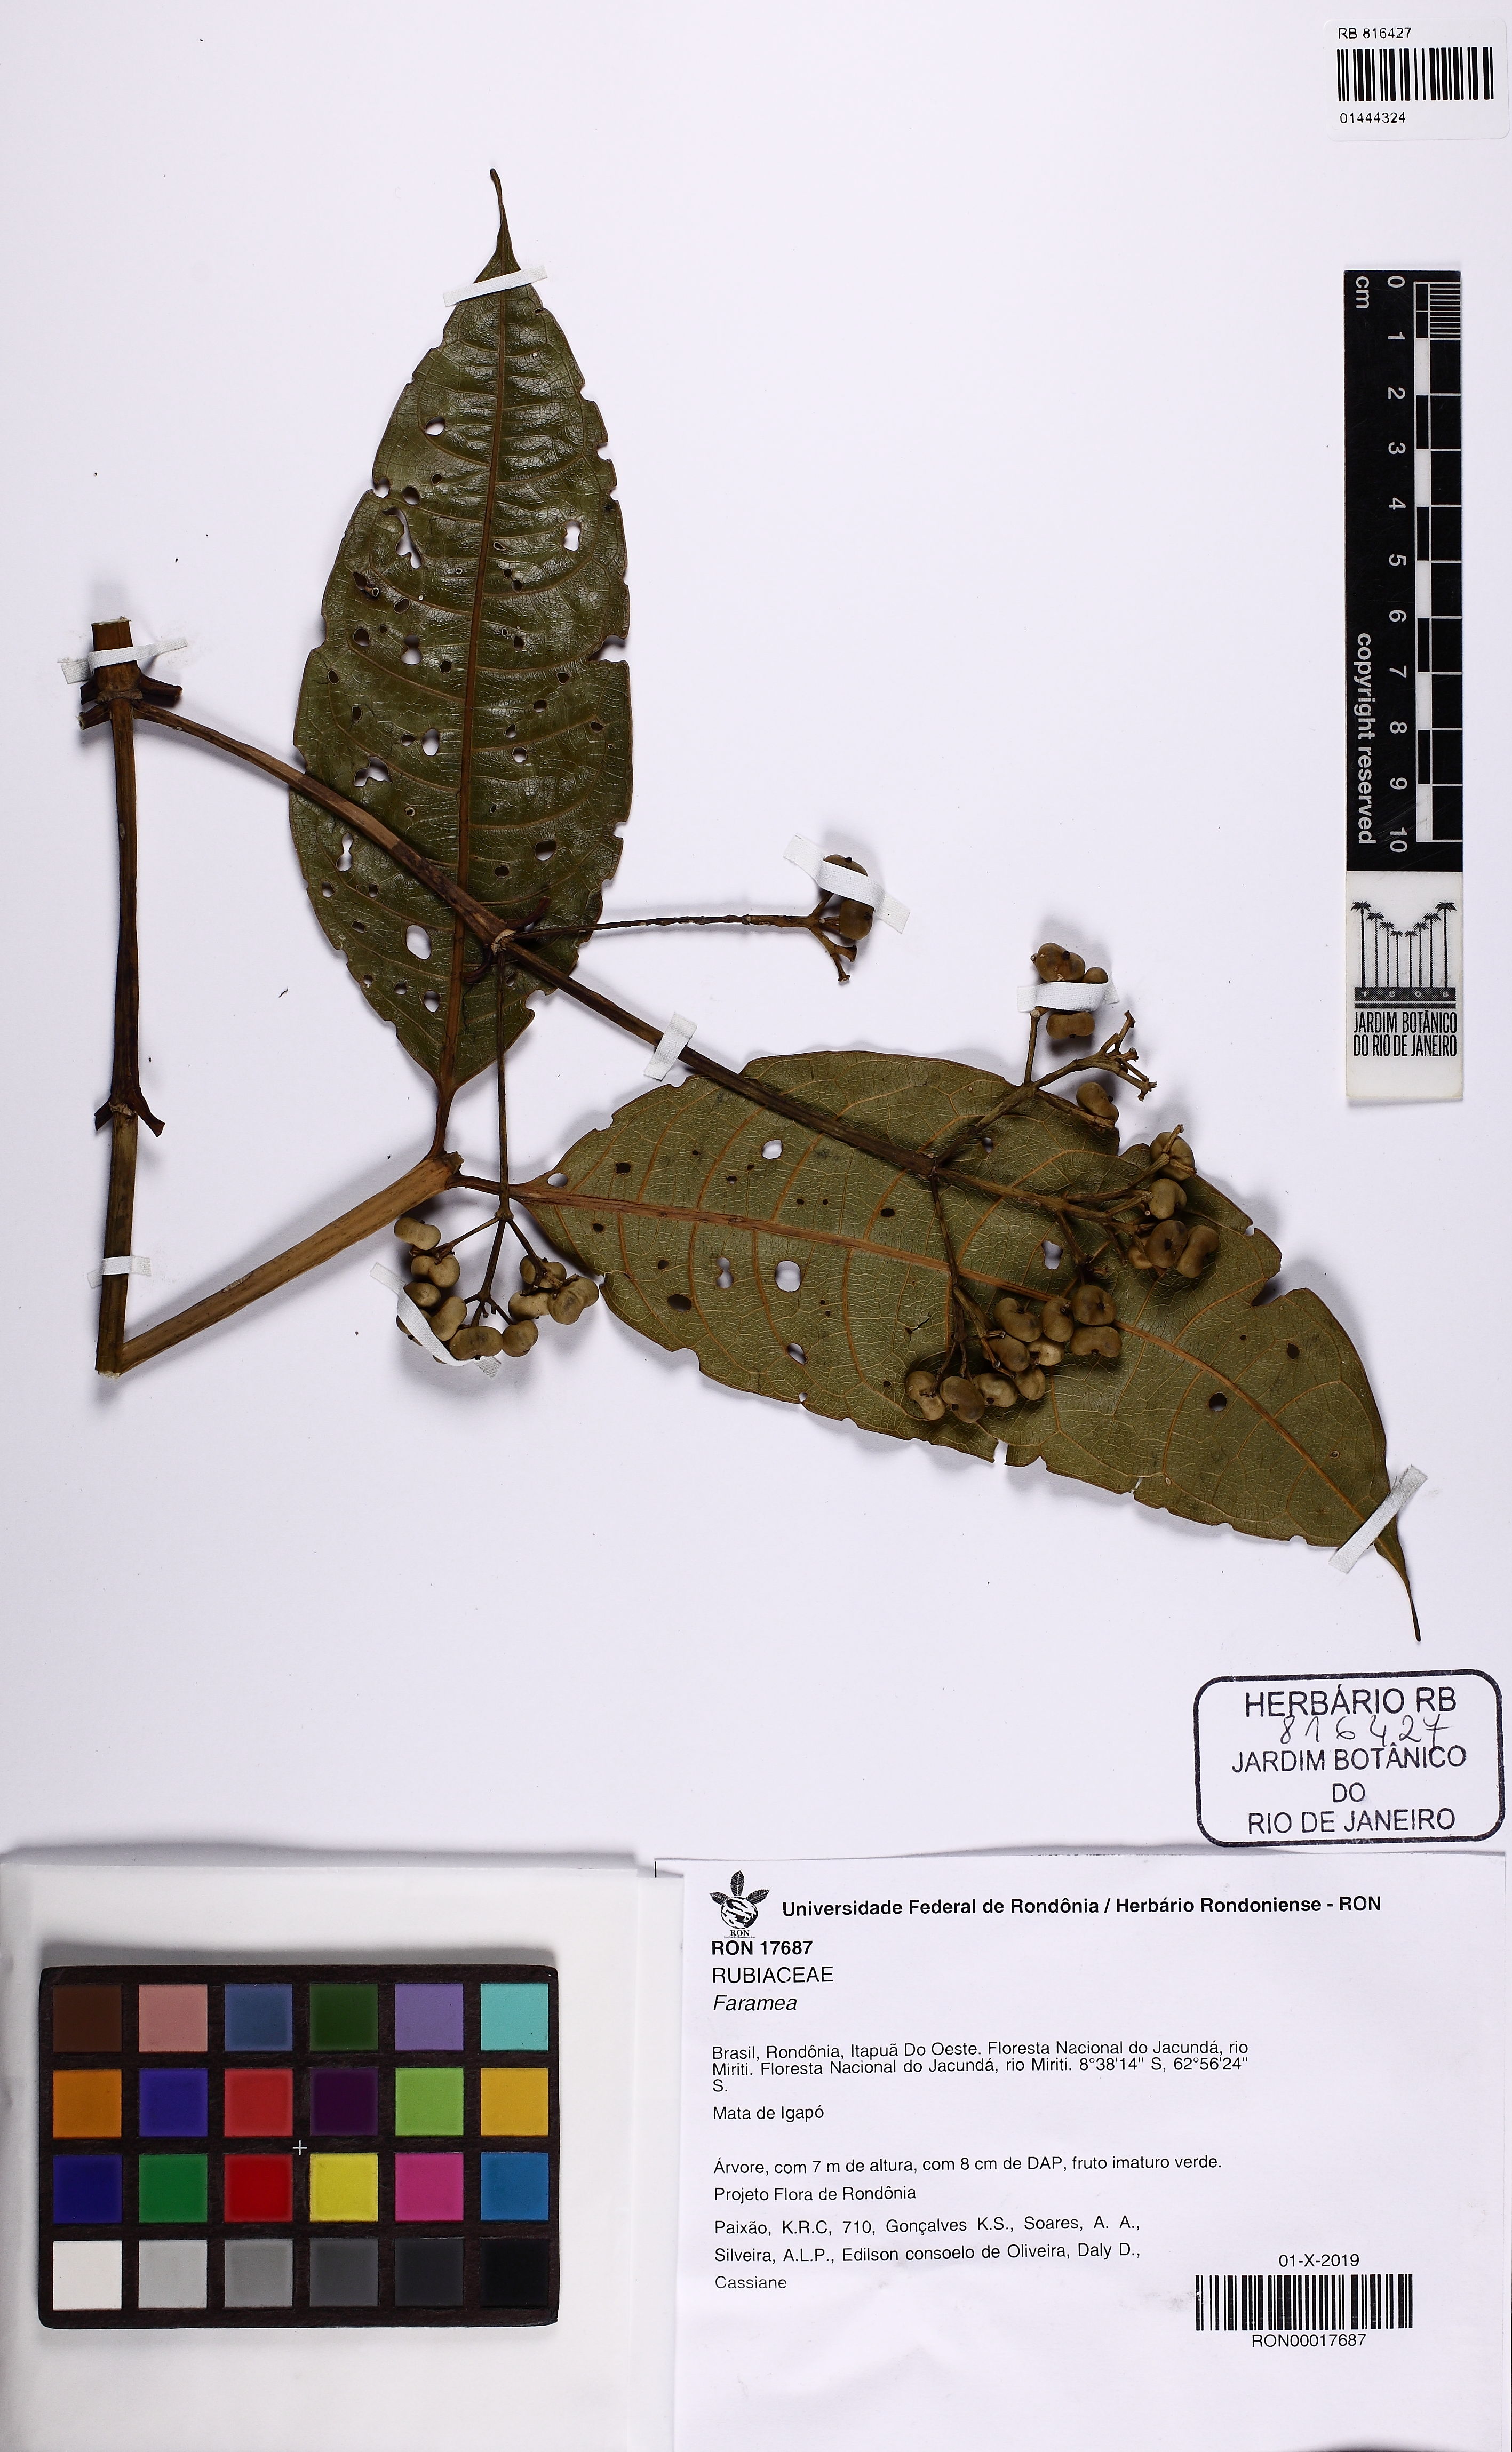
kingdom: Plantae
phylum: Tracheophyta
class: Magnoliopsida
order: Gentianales
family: Rubiaceae
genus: Faramea
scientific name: Faramea
